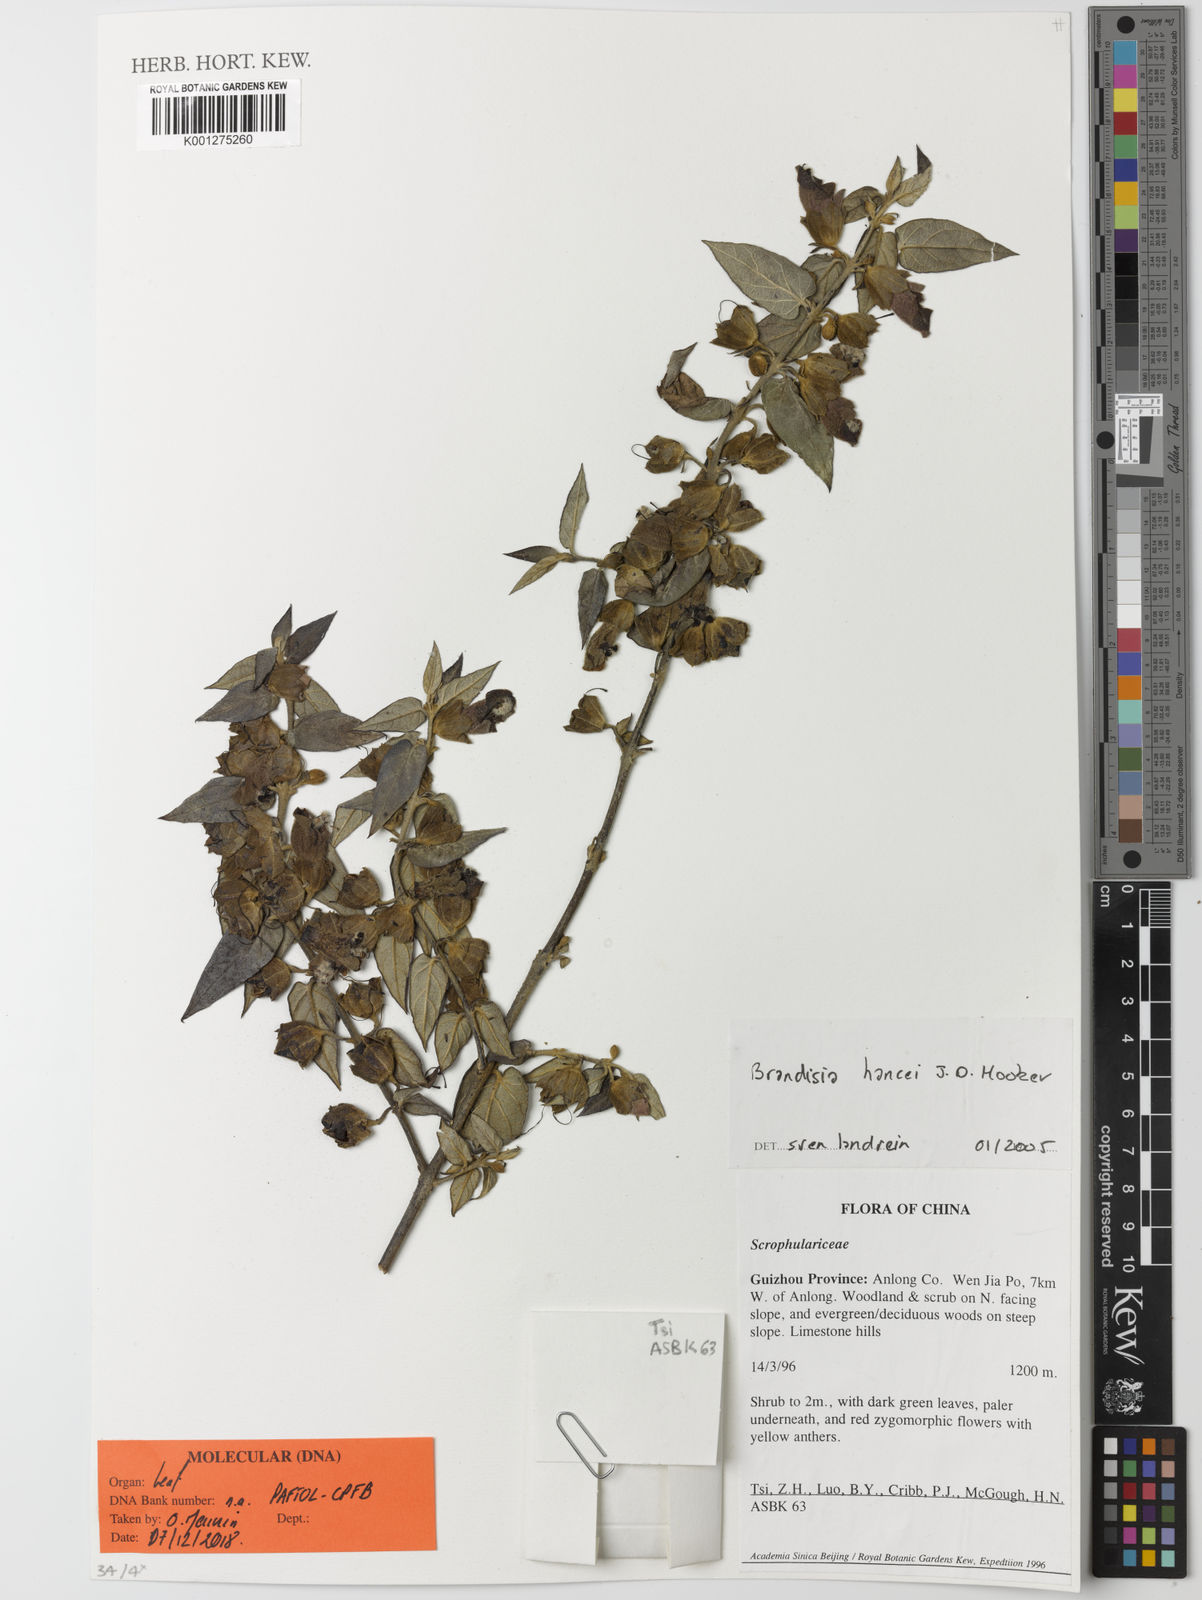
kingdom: Plantae
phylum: Tracheophyta
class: Magnoliopsida
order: Lamiales
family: Orobanchaceae
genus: Brandisia
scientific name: Brandisia hancei
